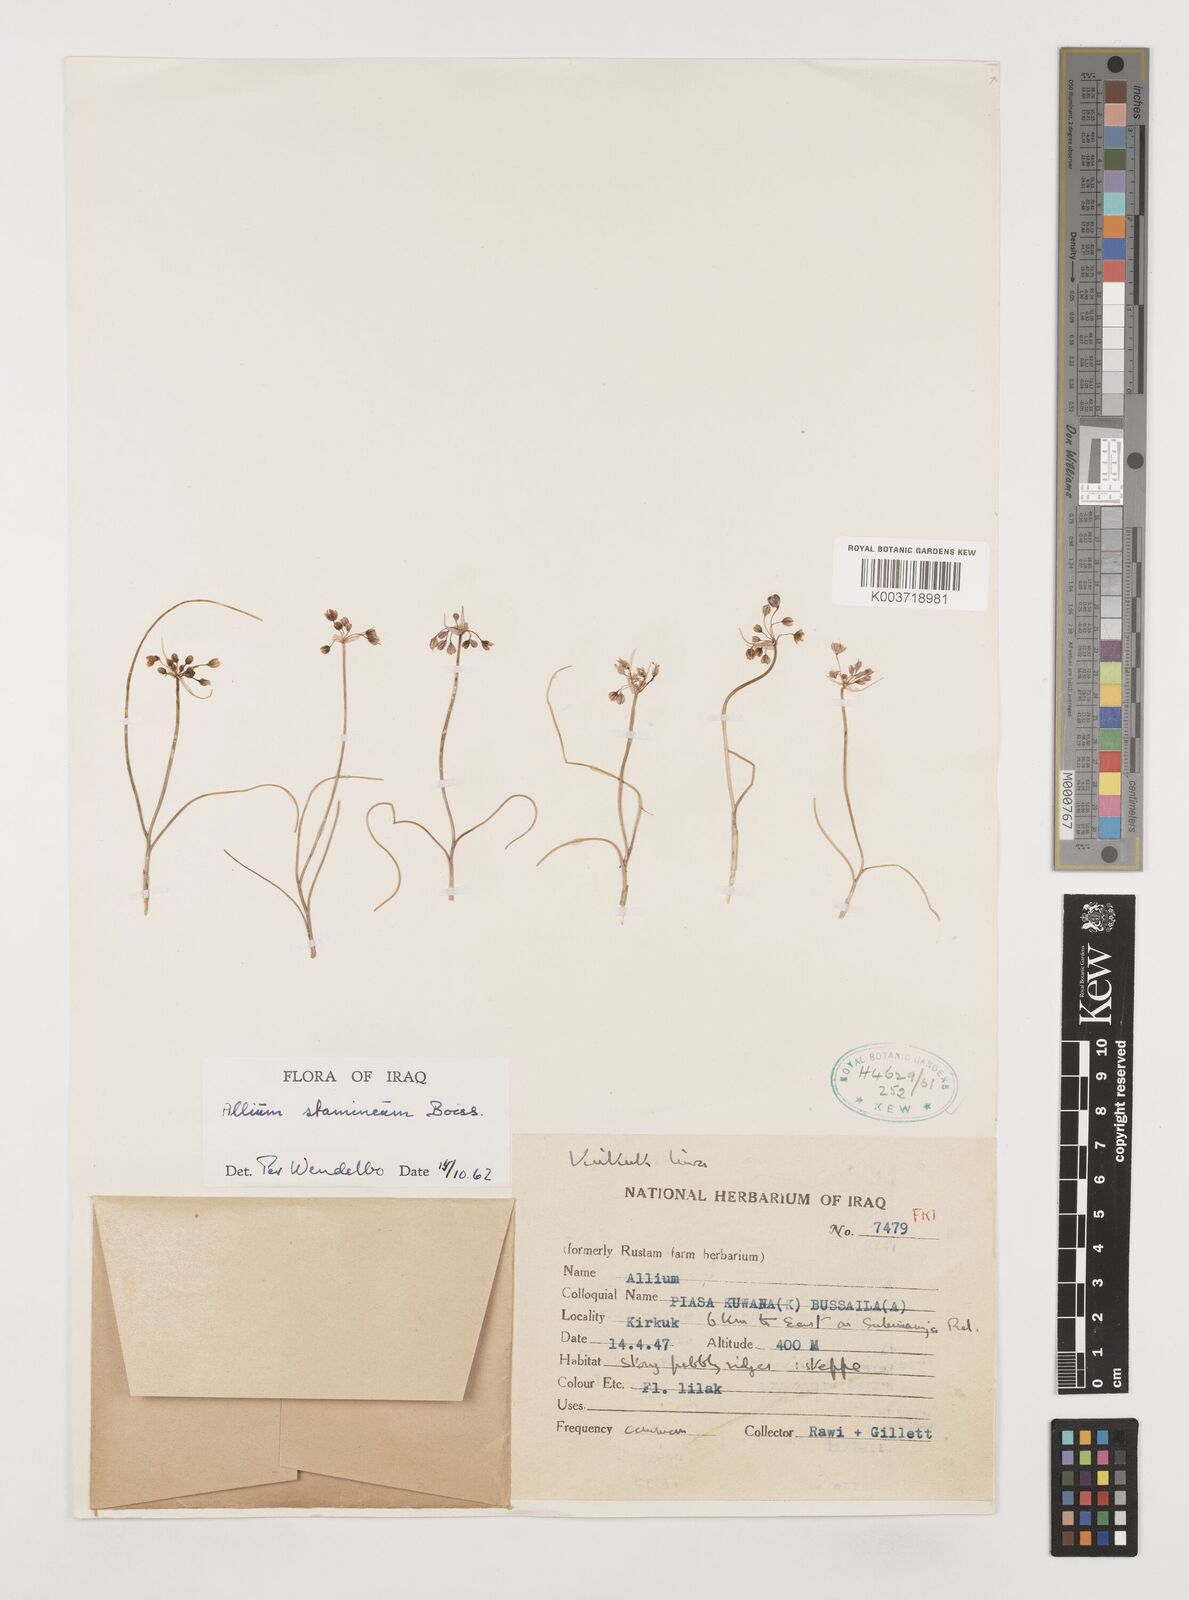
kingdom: Plantae
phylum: Tracheophyta
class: Liliopsida
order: Asparagales
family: Amaryllidaceae
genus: Allium
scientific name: Allium stamineum
